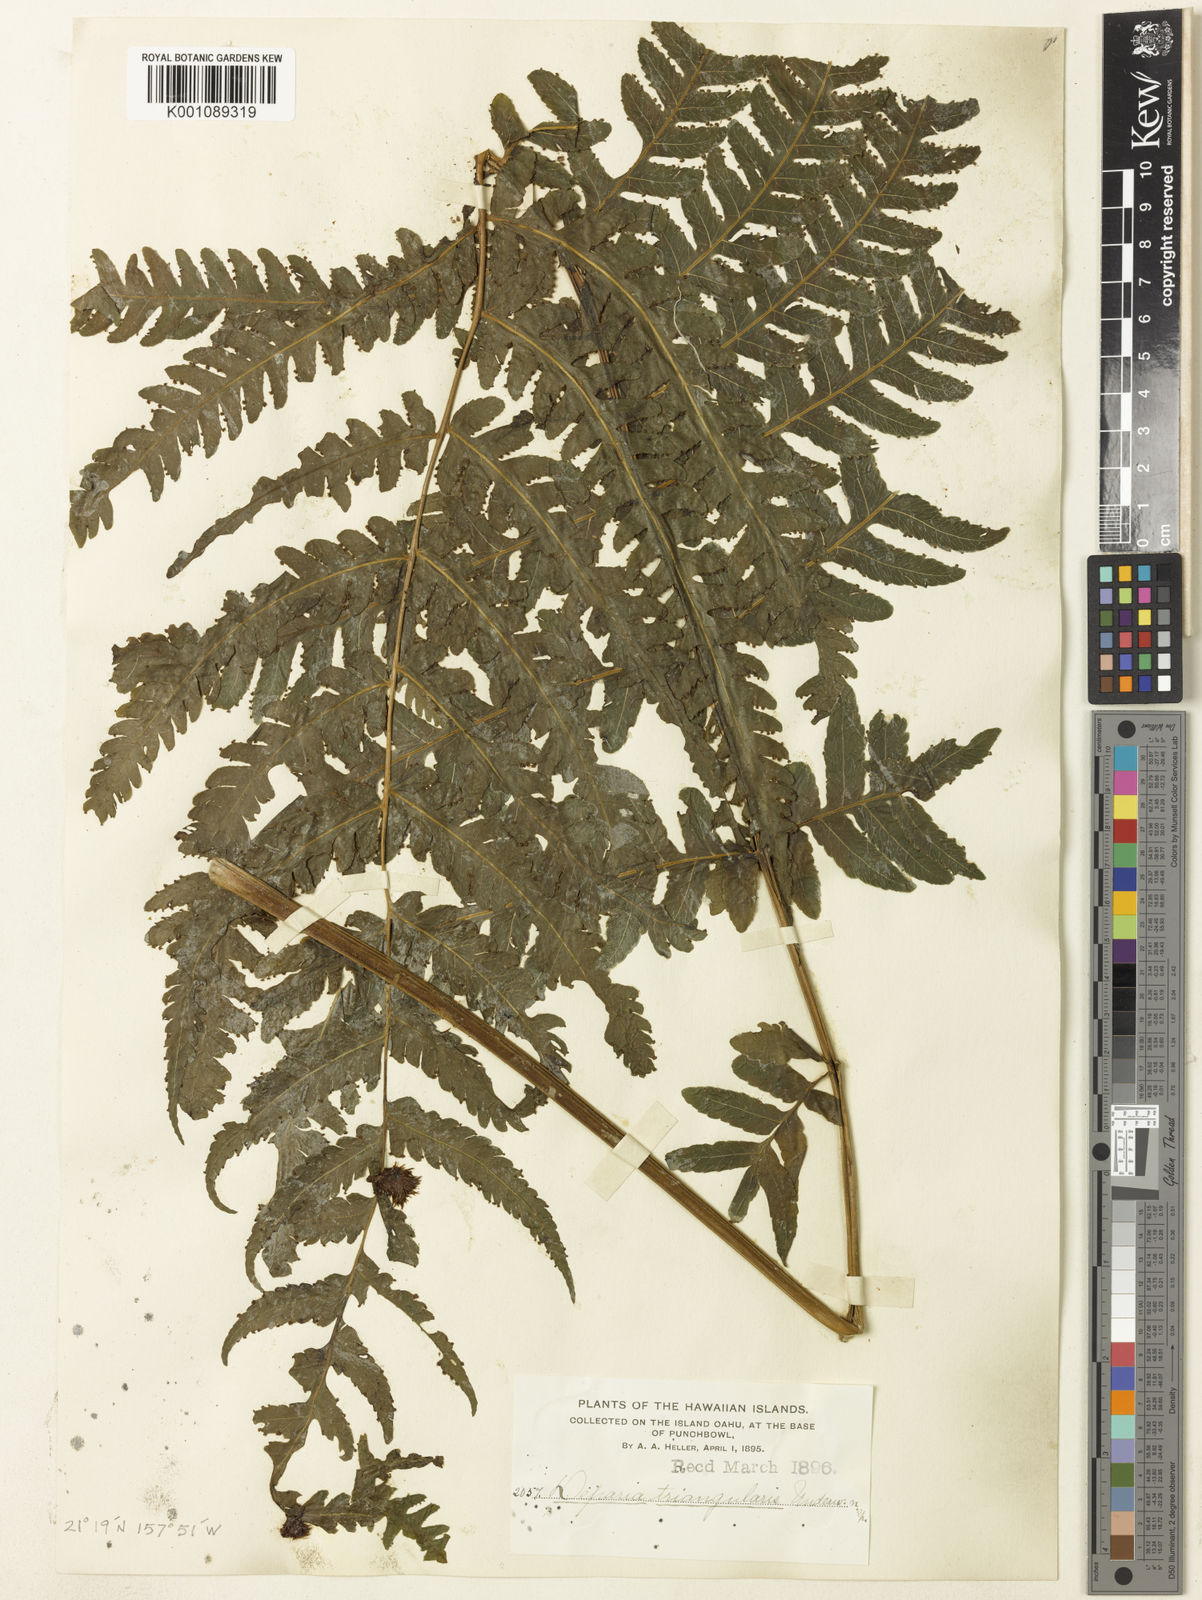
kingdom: Plantae
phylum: Tracheophyta
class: Polypodiopsida
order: Polypodiales
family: Athyriaceae
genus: Deparia
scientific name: Deparia prolifera
